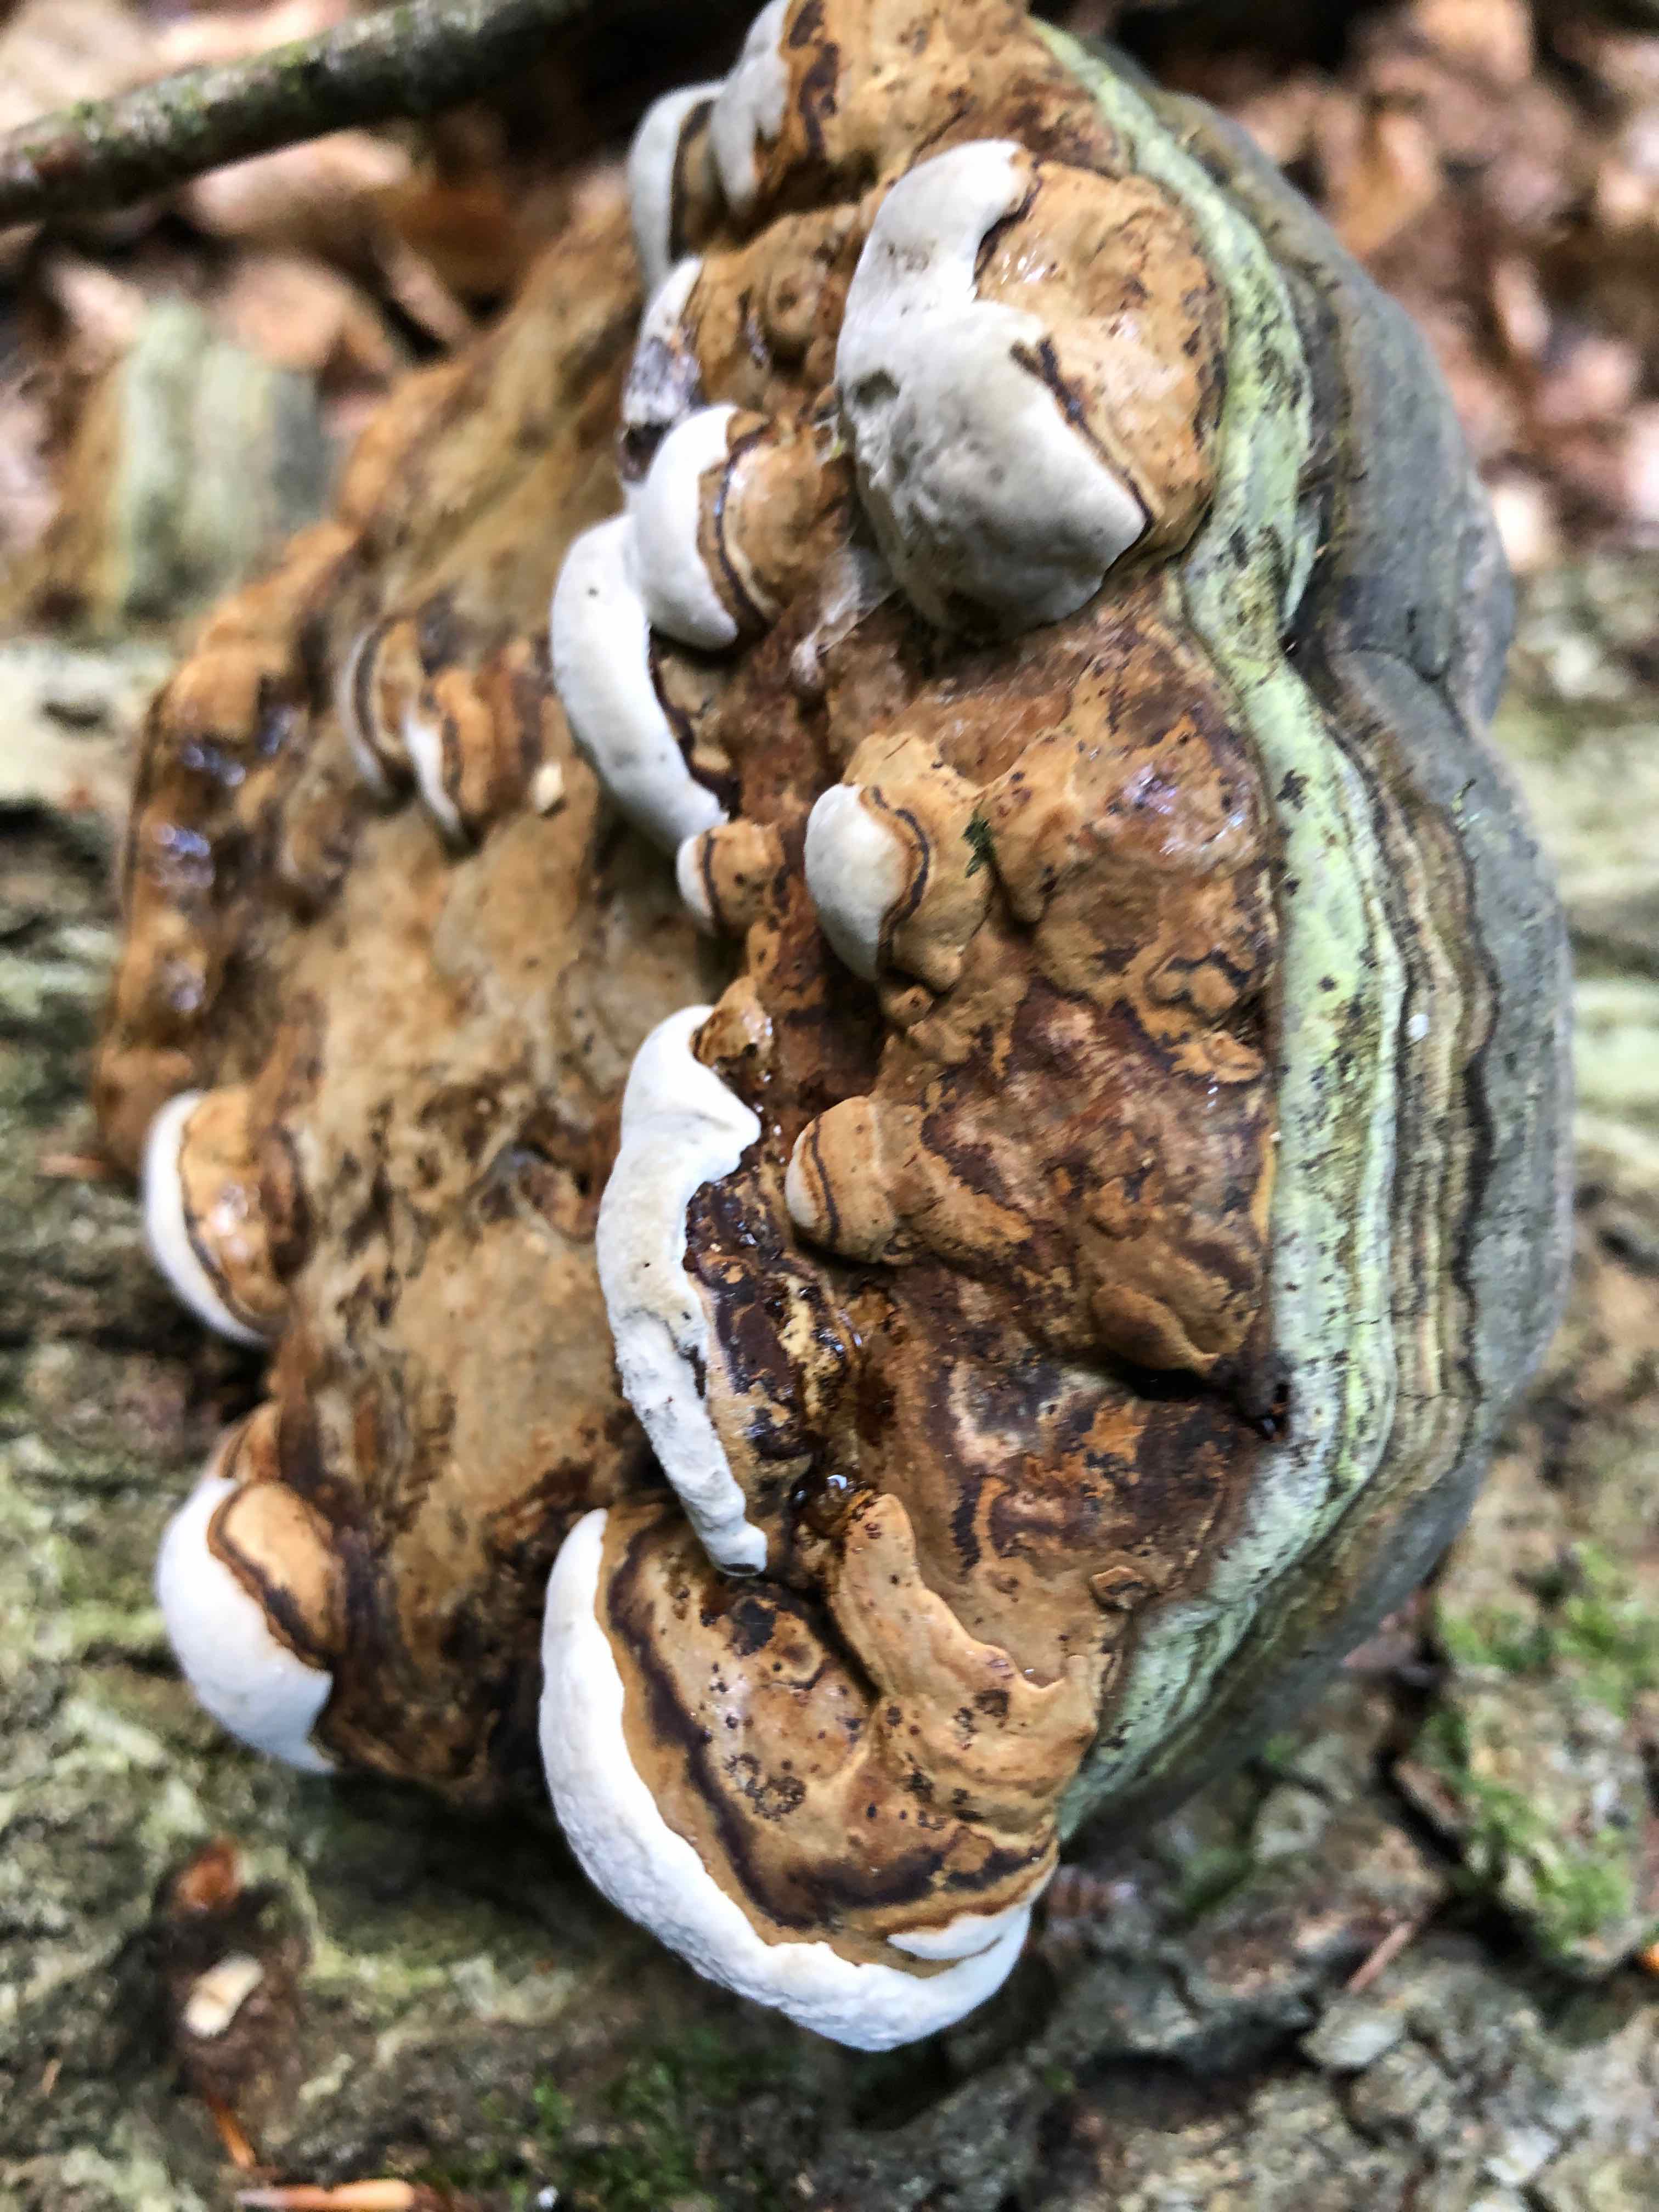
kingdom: Fungi
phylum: Basidiomycota
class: Agaricomycetes
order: Polyporales
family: Polyporaceae
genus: Fomes
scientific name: Fomes fomentarius
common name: tøndersvamp
